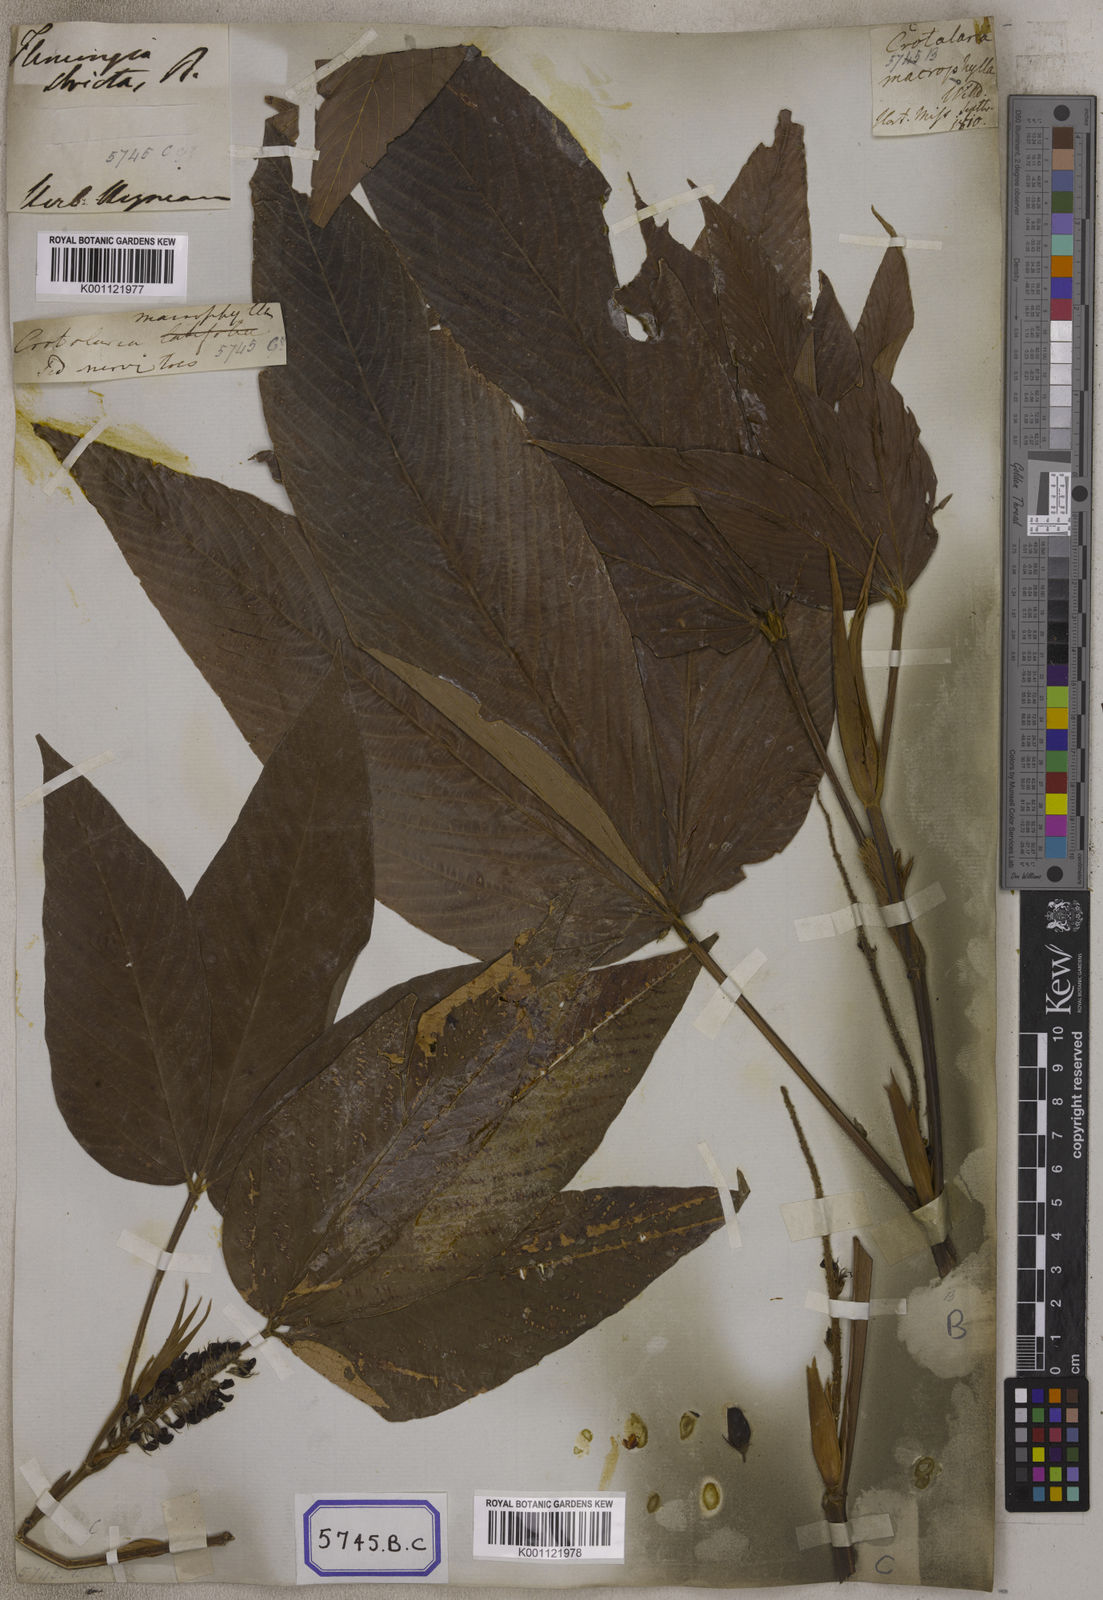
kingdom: Plantae
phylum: Tracheophyta
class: Magnoliopsida
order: Fabales
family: Fabaceae
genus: Flemingia
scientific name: Flemingia
